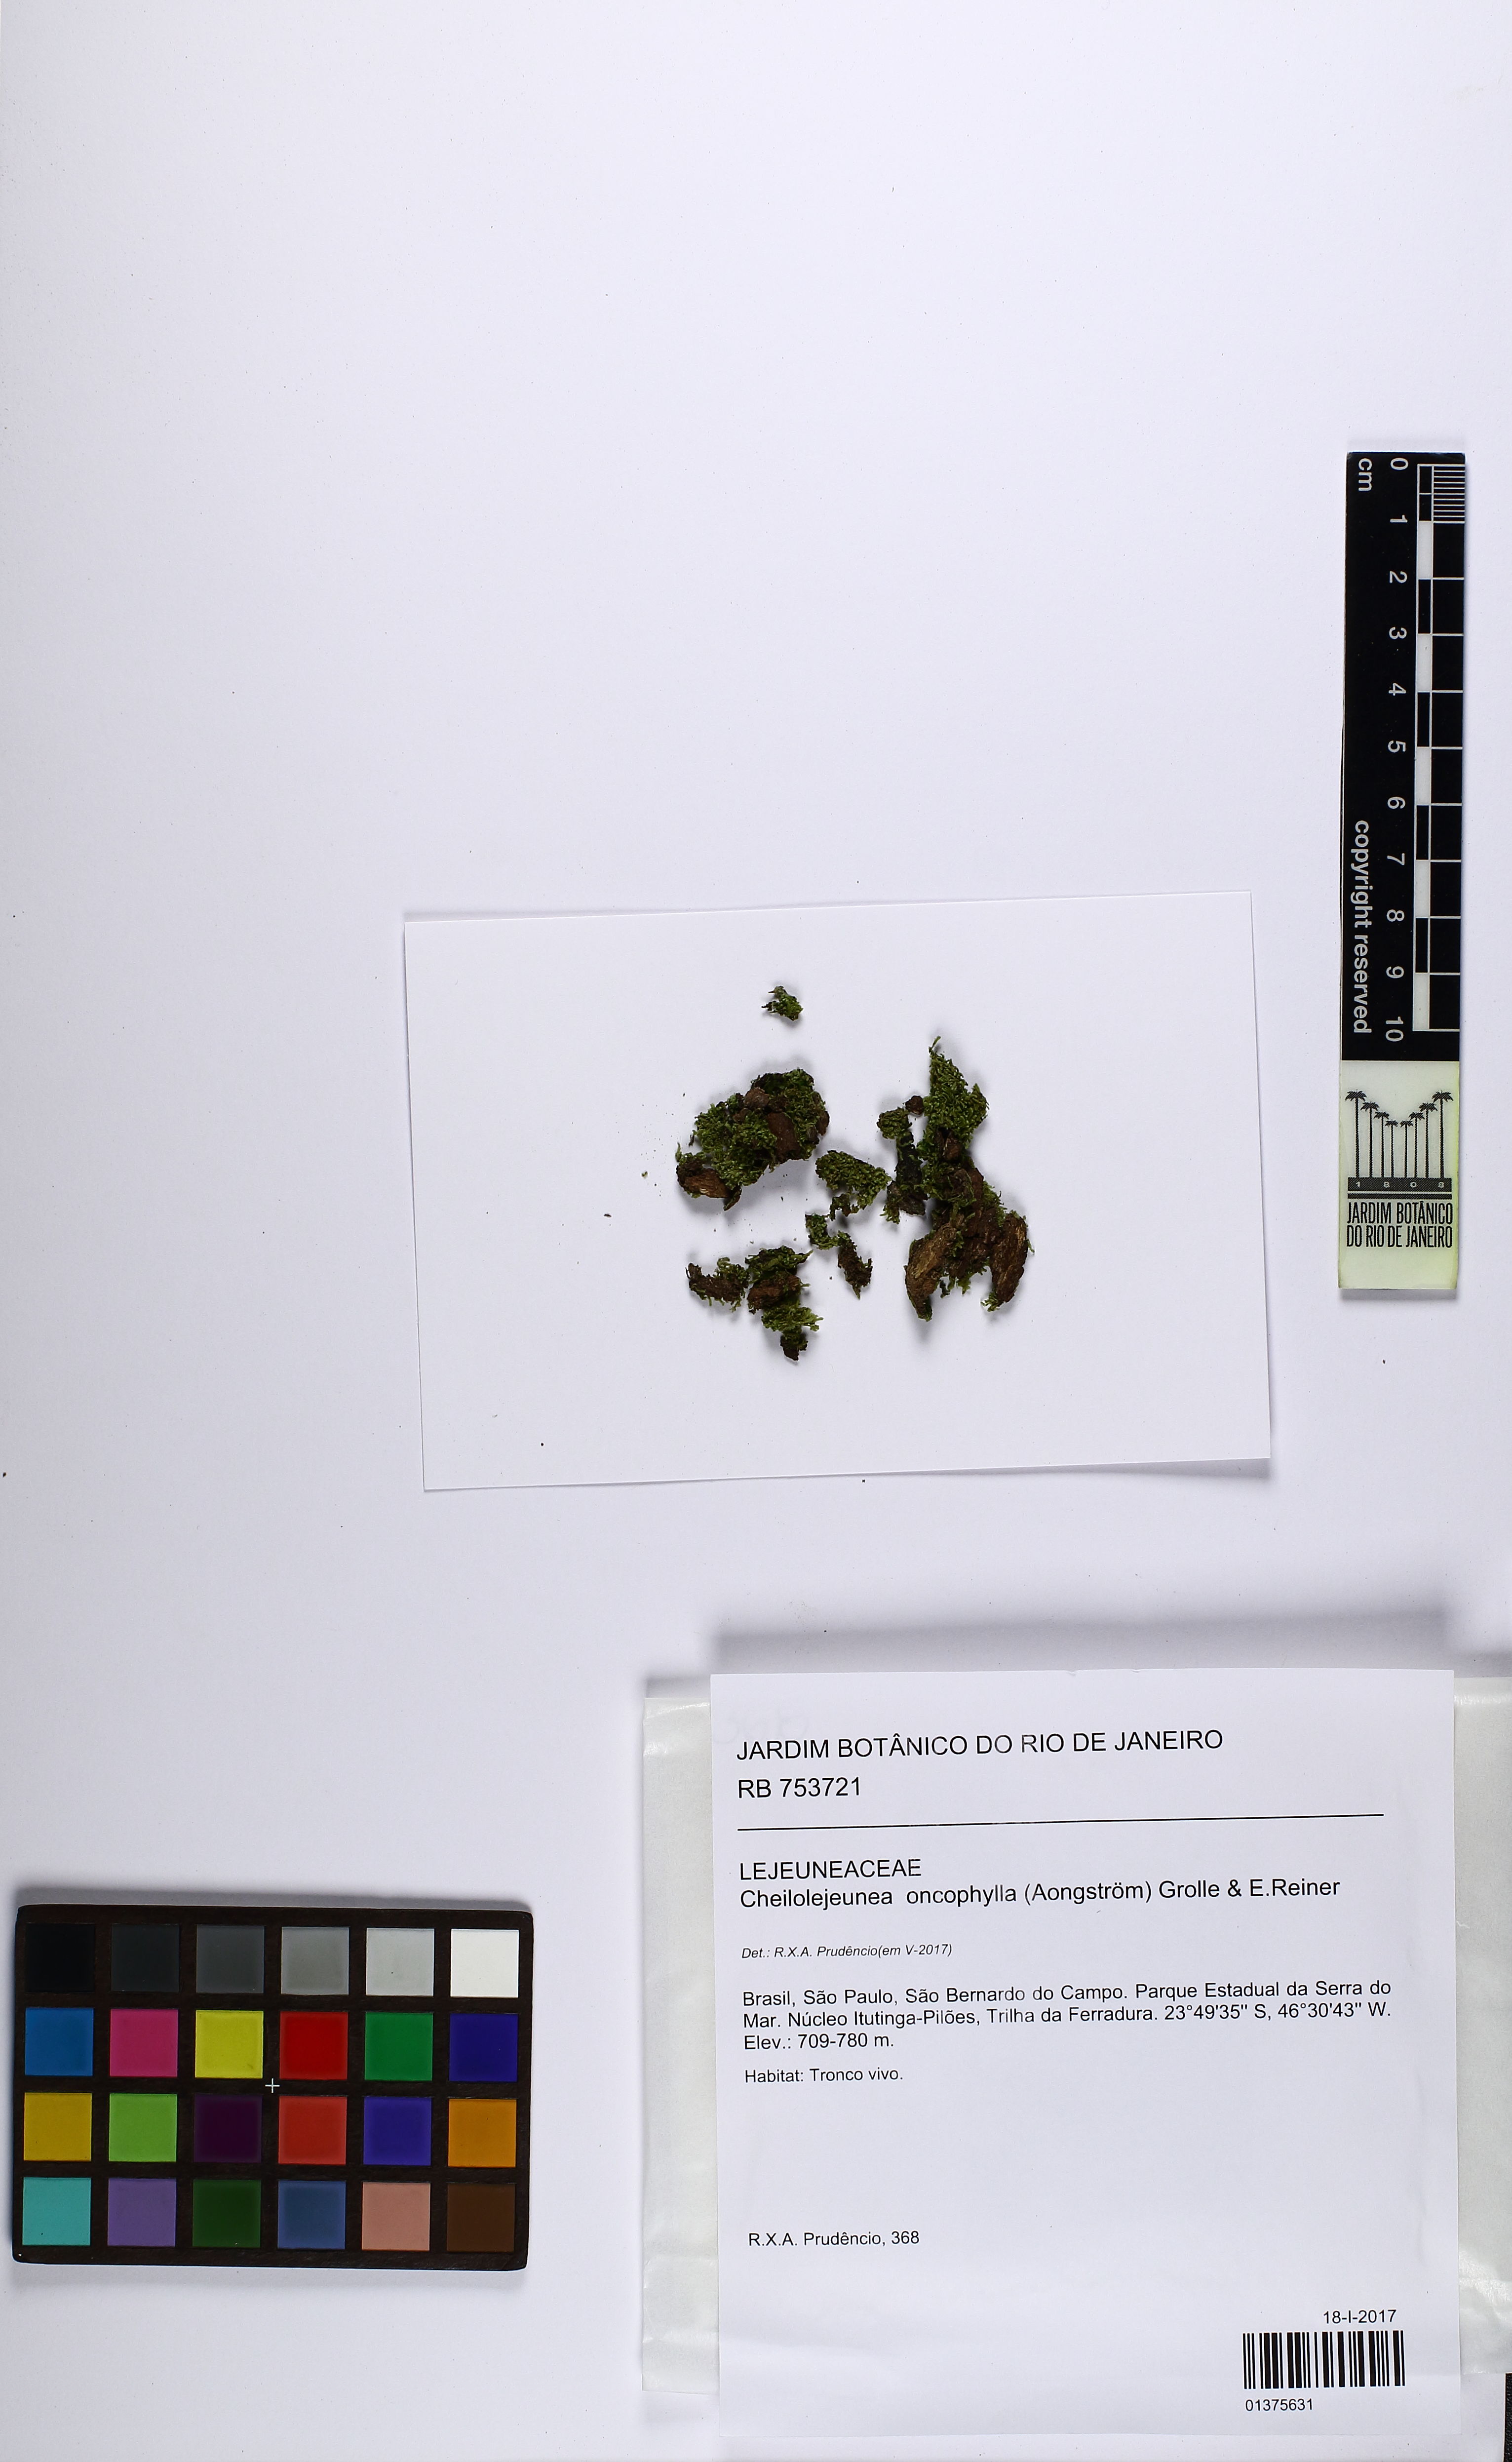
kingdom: Plantae
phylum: Marchantiophyta
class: Jungermanniopsida
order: Porellales
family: Lejeuneaceae
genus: Cheilolejeunea
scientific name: Cheilolejeunea lobulata
